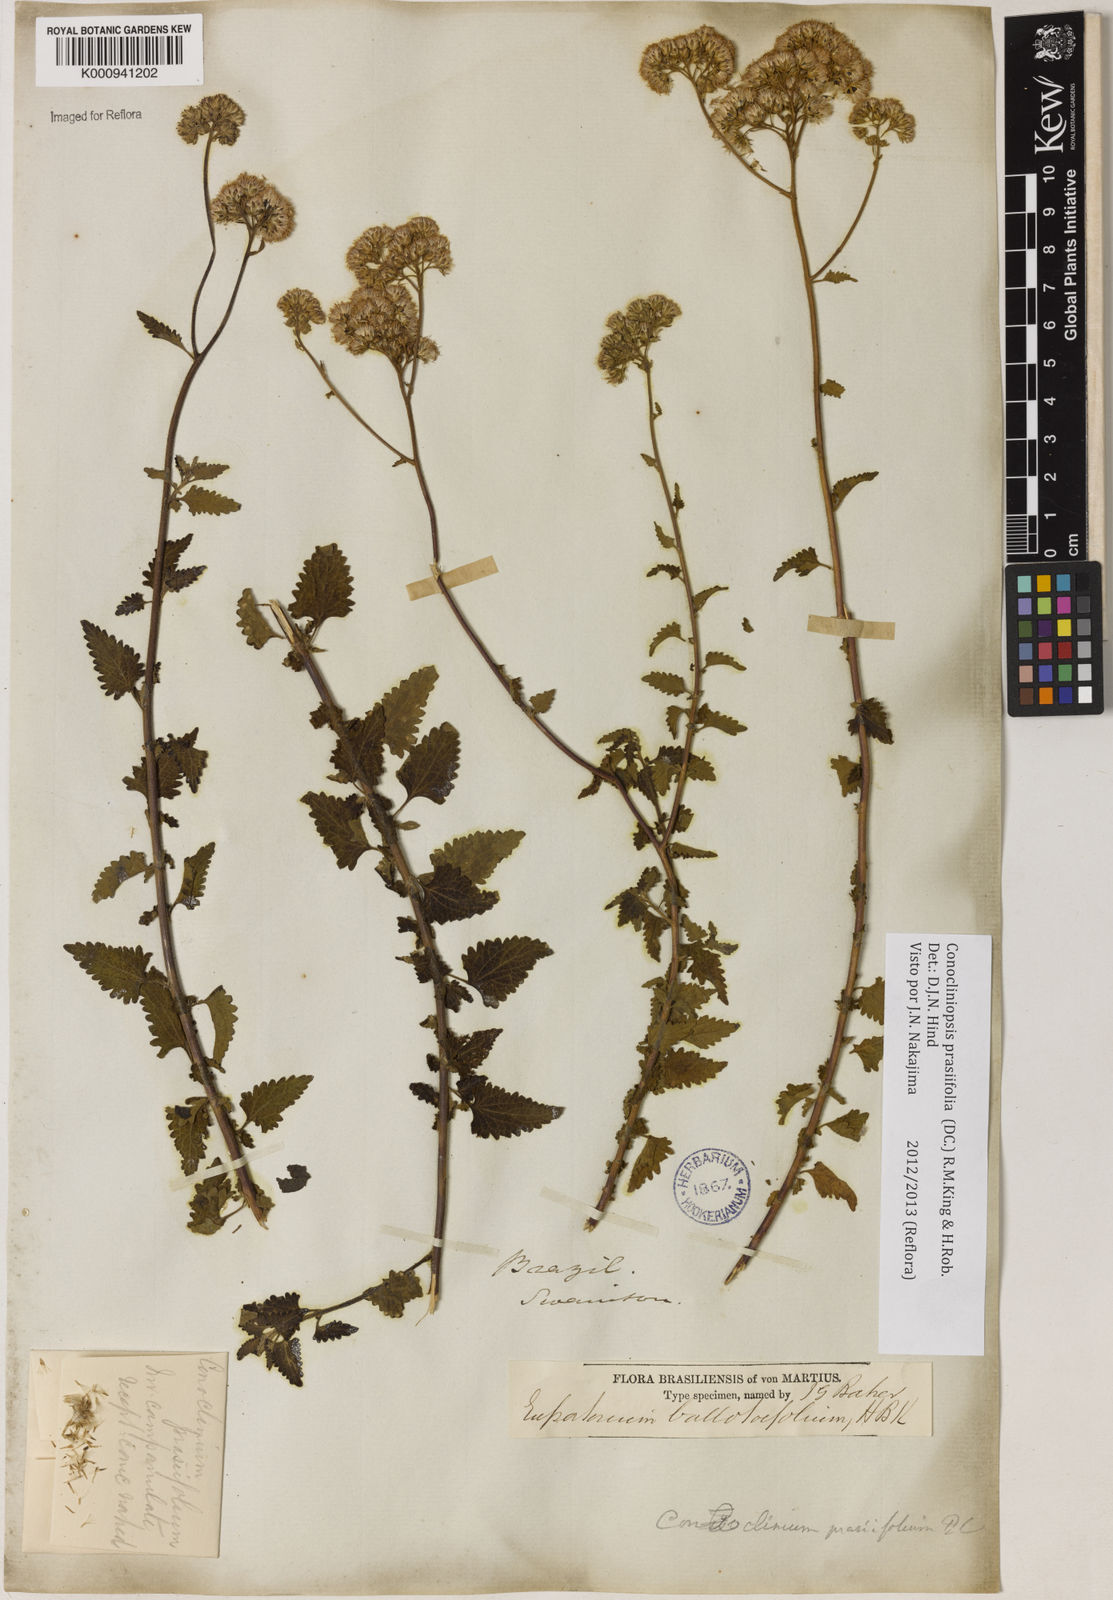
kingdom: Plantae
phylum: Tracheophyta
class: Magnoliopsida
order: Asterales
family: Asteraceae
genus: Conocliniopsis
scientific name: Conocliniopsis grossedentata
